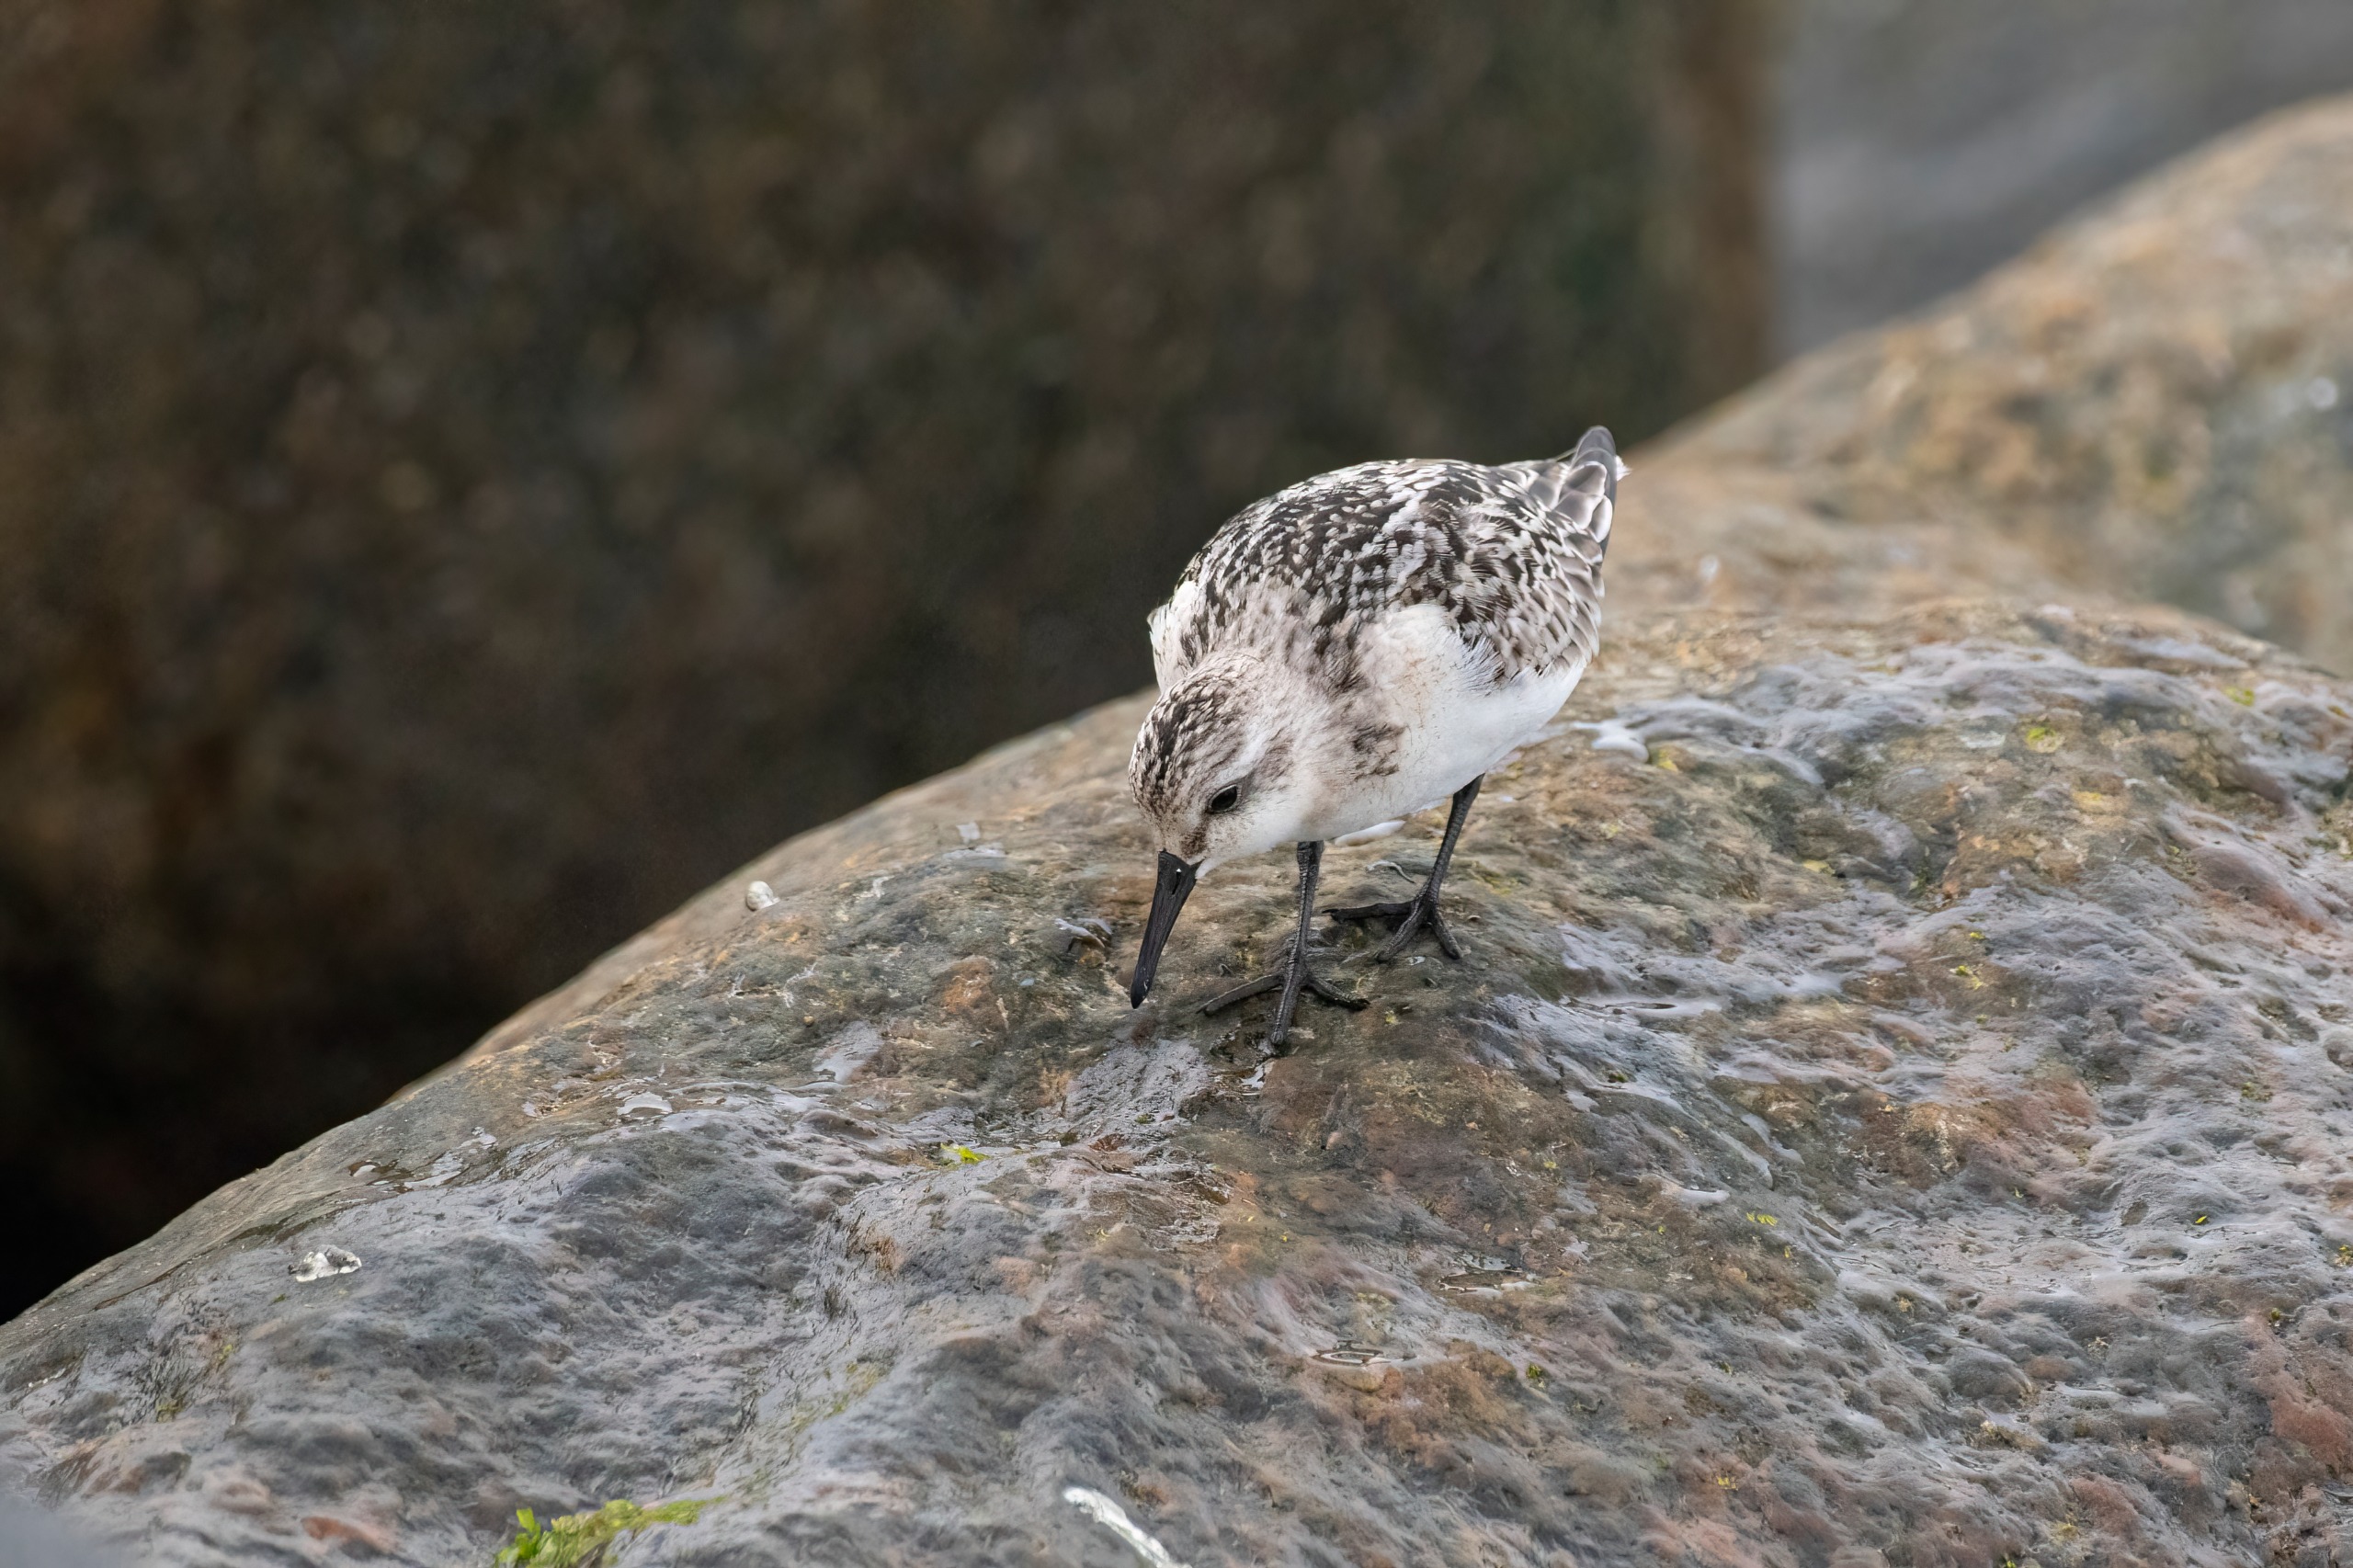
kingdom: Animalia
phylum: Chordata
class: Aves
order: Charadriiformes
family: Scolopacidae
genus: Calidris
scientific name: Calidris alba
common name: Sandløber
